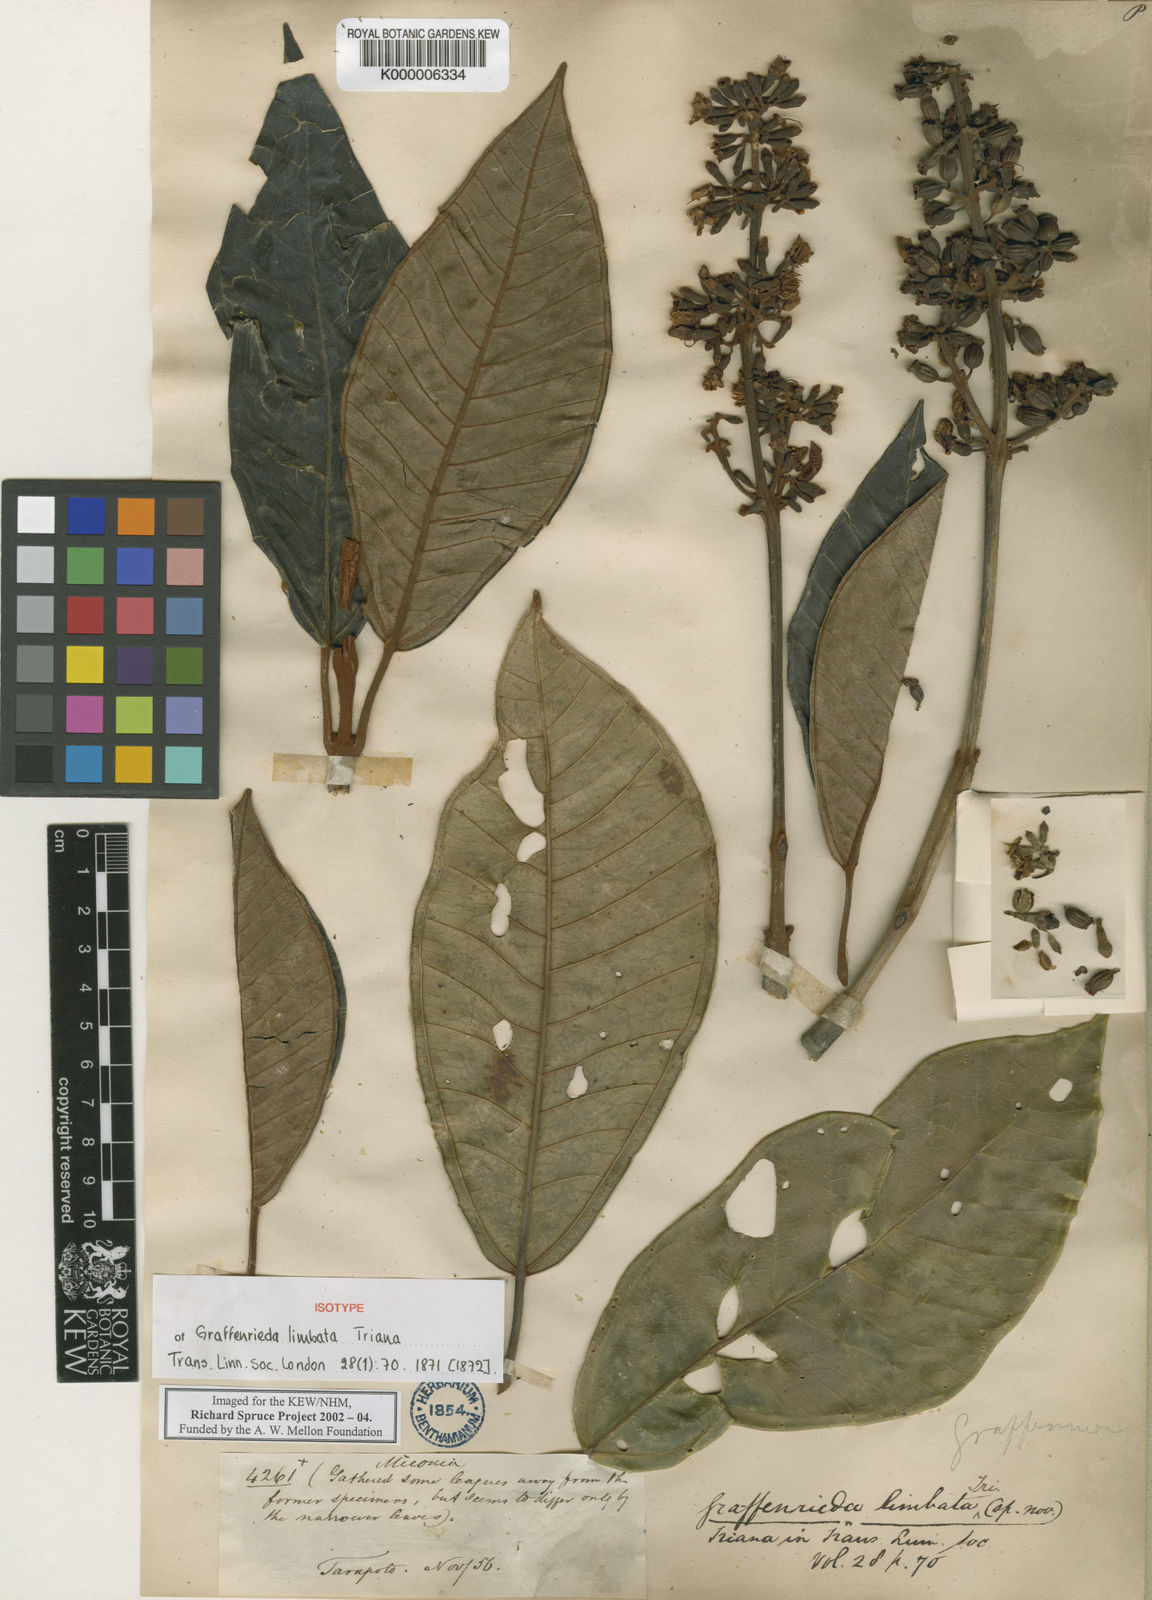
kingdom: Plantae
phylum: Tracheophyta
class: Magnoliopsida
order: Myrtales
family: Melastomataceae
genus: Graffenrieda
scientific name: Graffenrieda limbata
